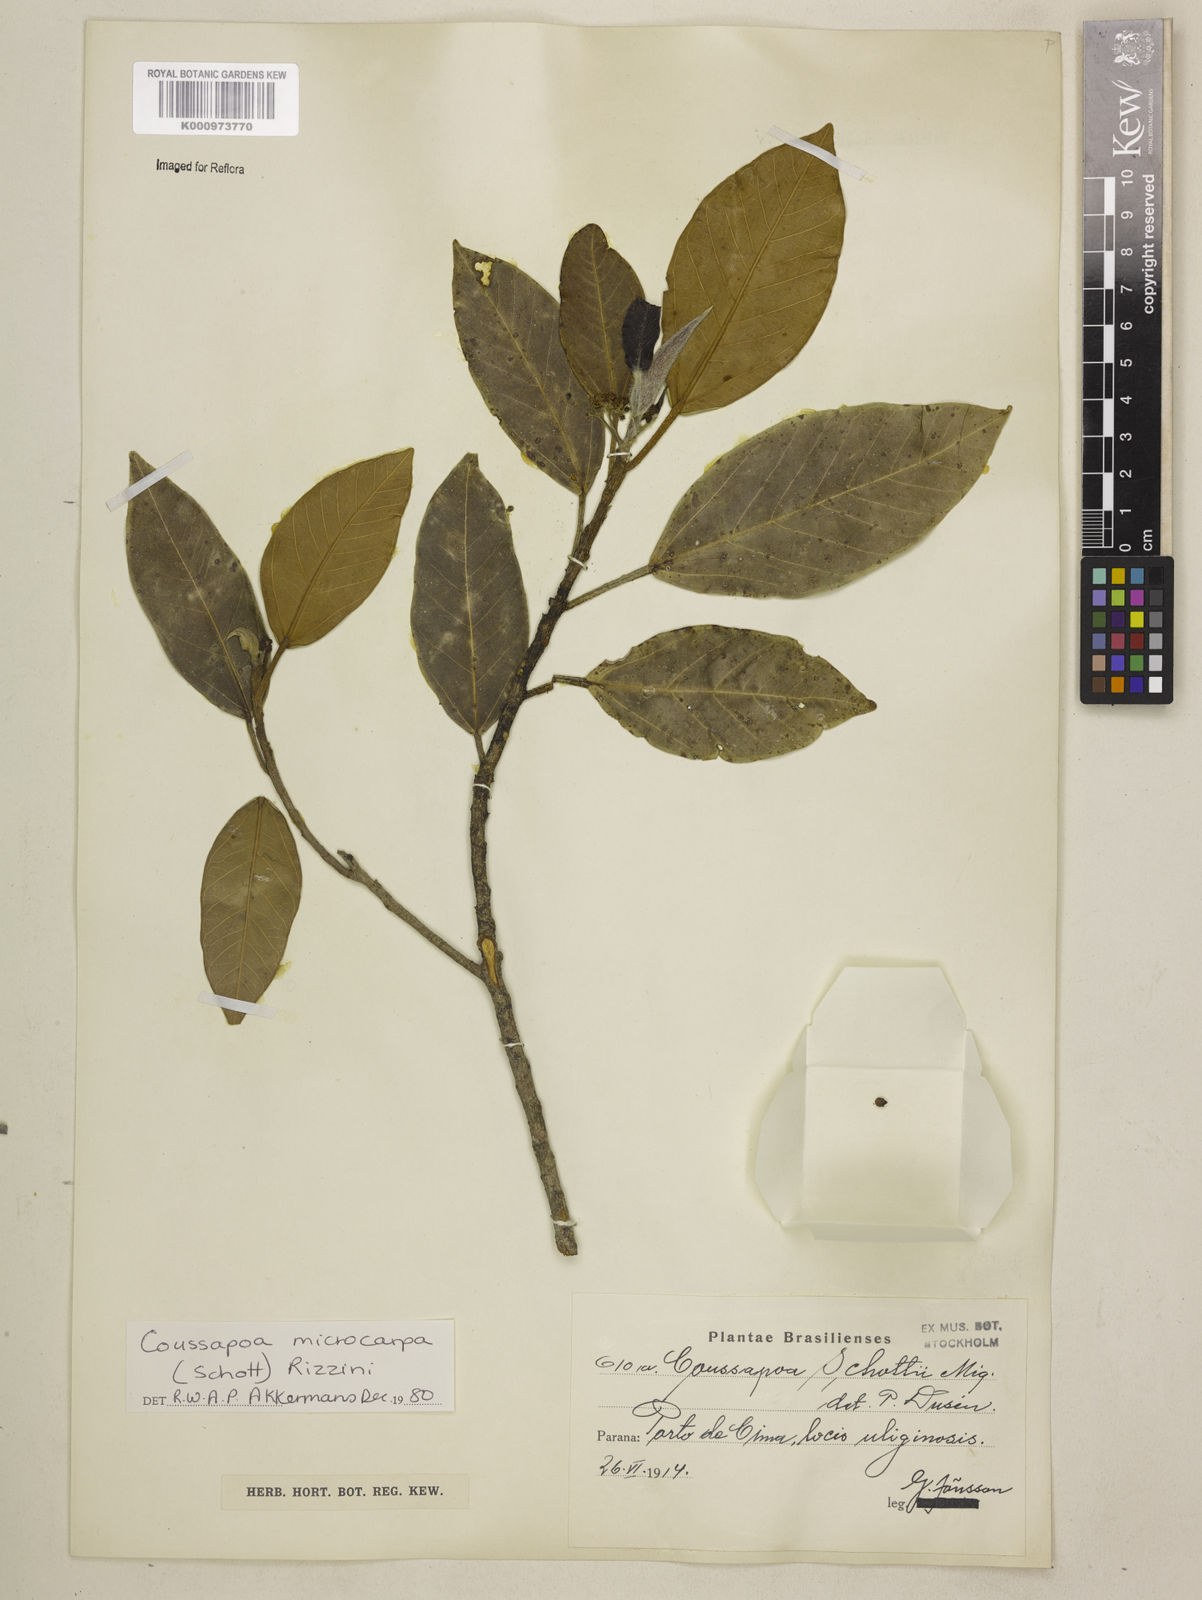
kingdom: Plantae
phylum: Tracheophyta
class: Magnoliopsida
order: Rosales
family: Urticaceae
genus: Coussapoa
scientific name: Coussapoa microcarpa
